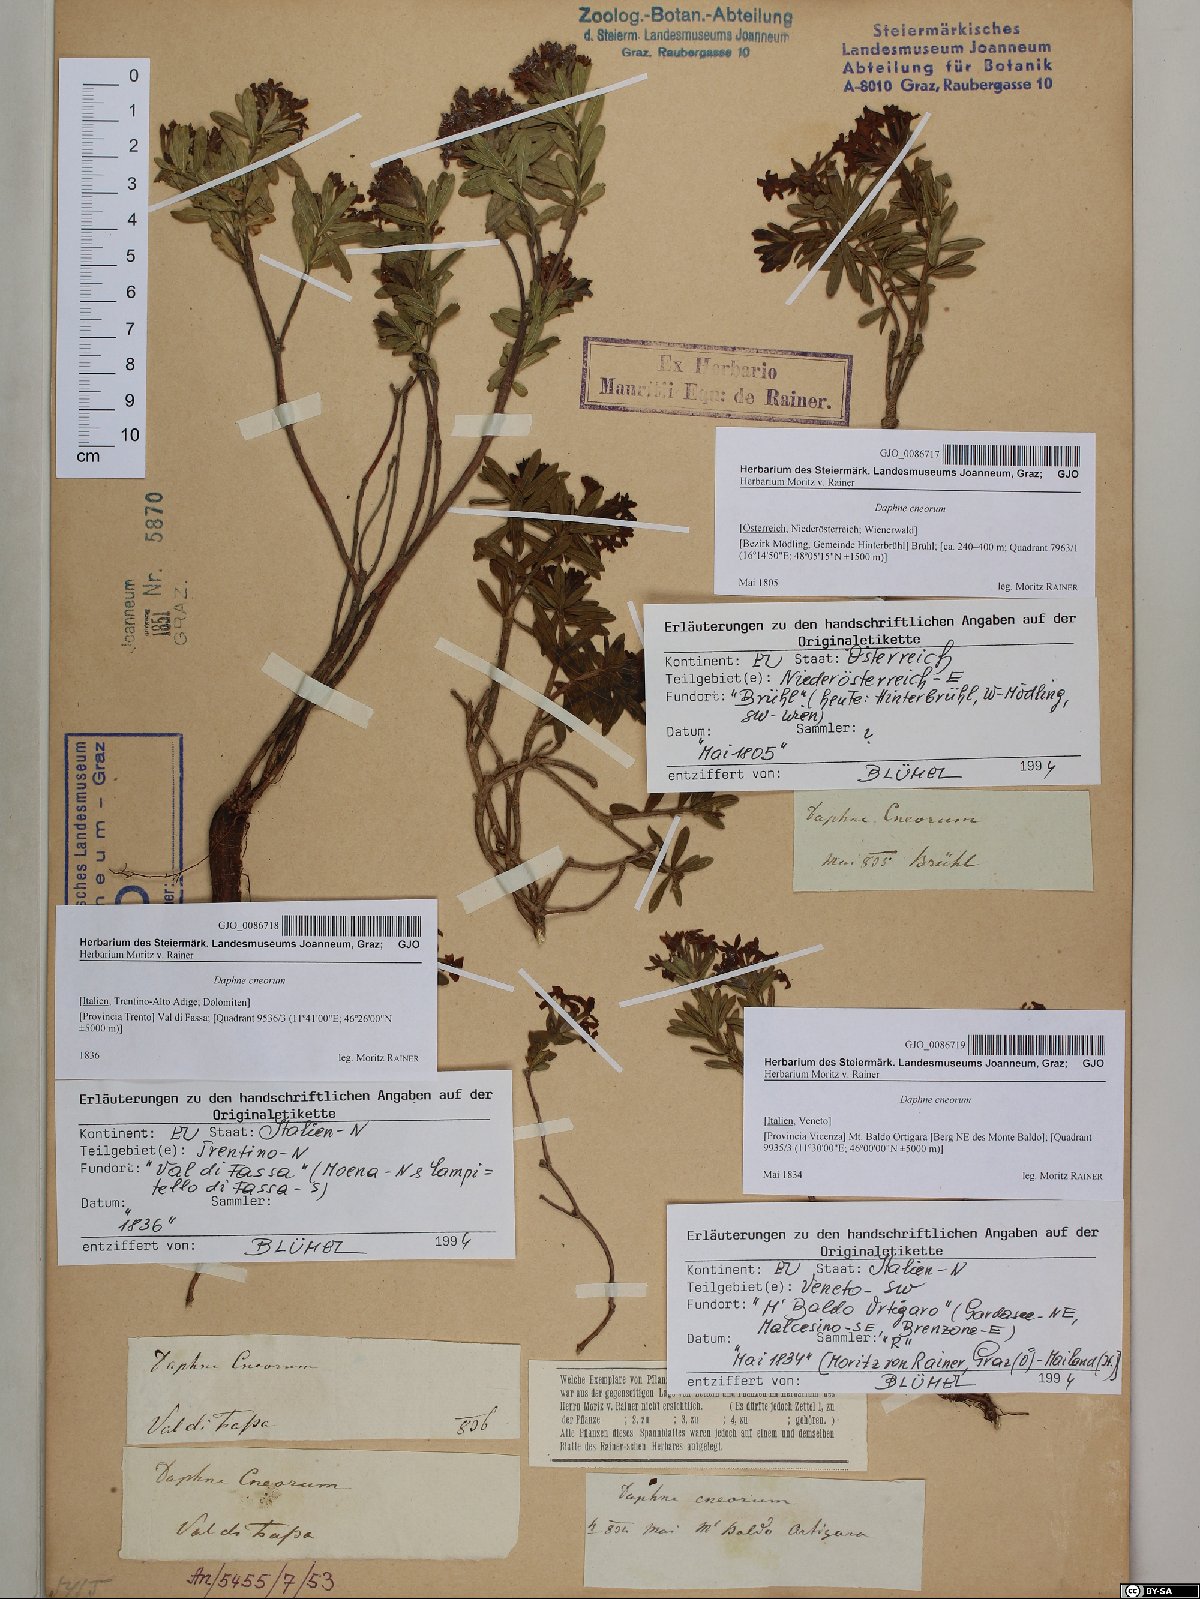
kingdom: Plantae
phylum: Tracheophyta
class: Magnoliopsida
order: Malvales
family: Thymelaeaceae
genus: Daphne
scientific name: Daphne cneorum
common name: Garland-flower
